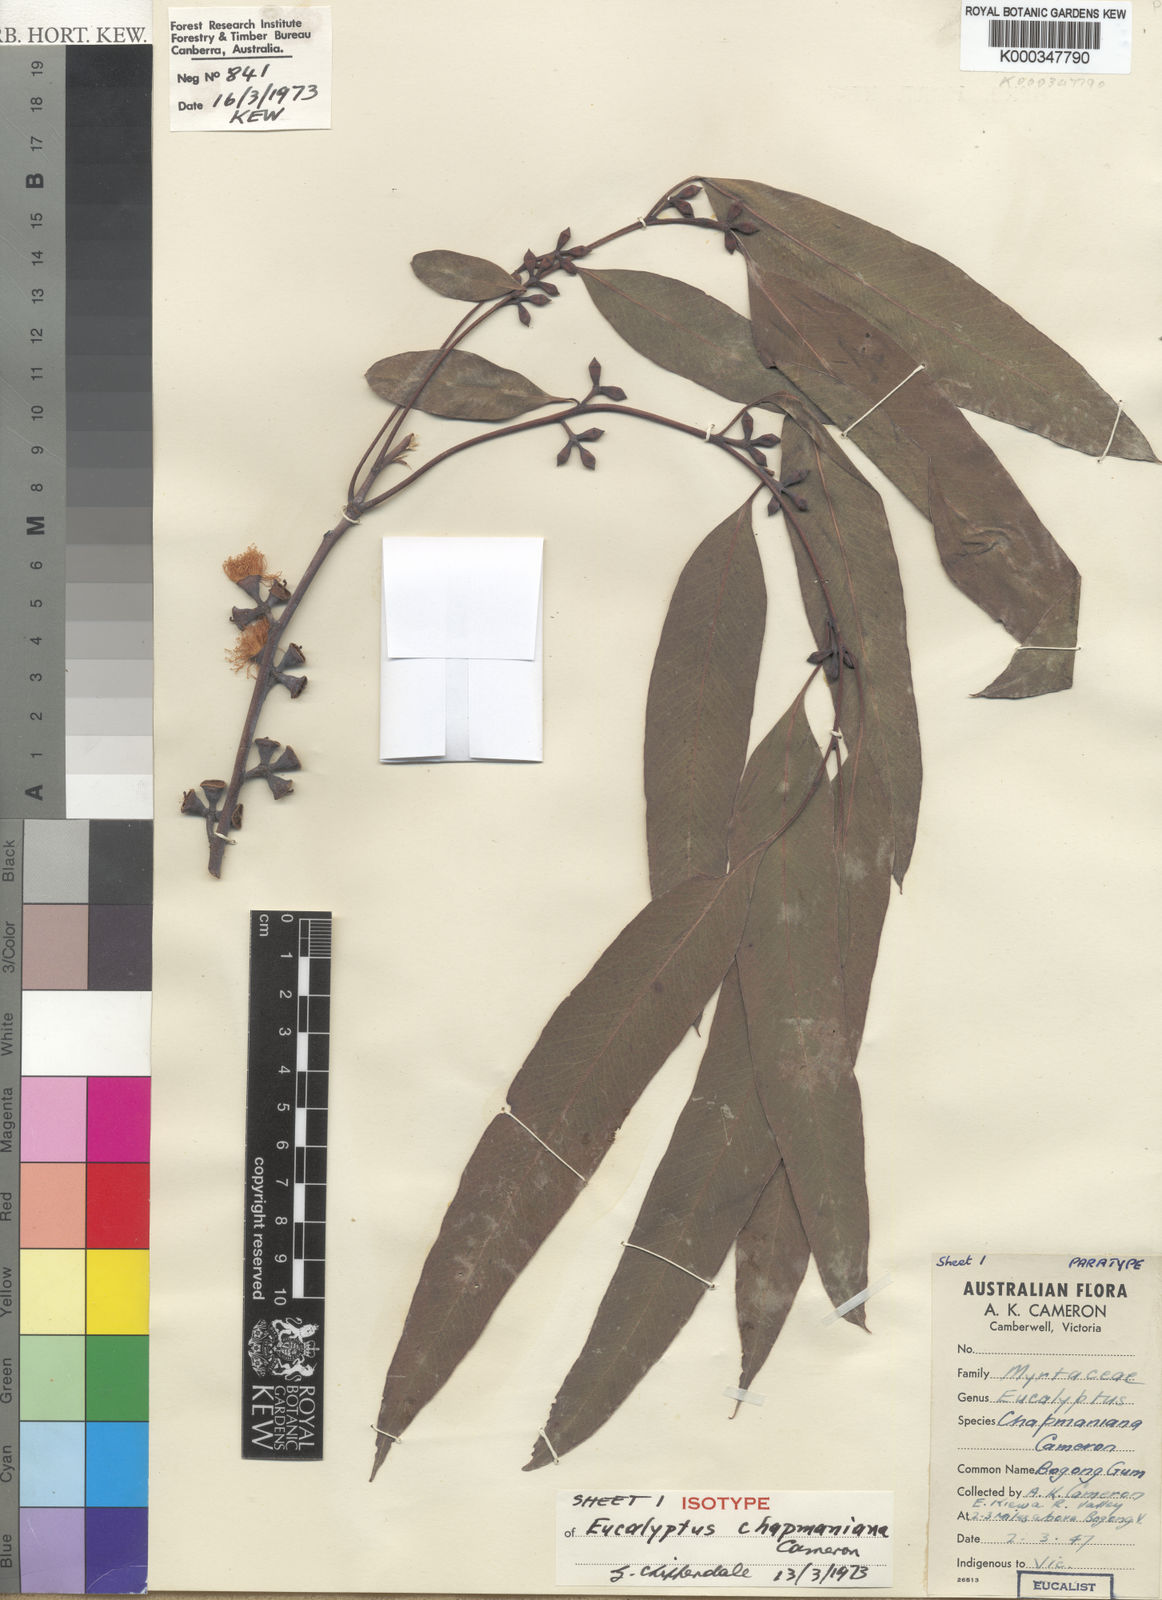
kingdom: Plantae
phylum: Tracheophyta
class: Magnoliopsida
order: Myrtales
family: Myrtaceae
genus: Eucalyptus
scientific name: Eucalyptus chapmaniana
